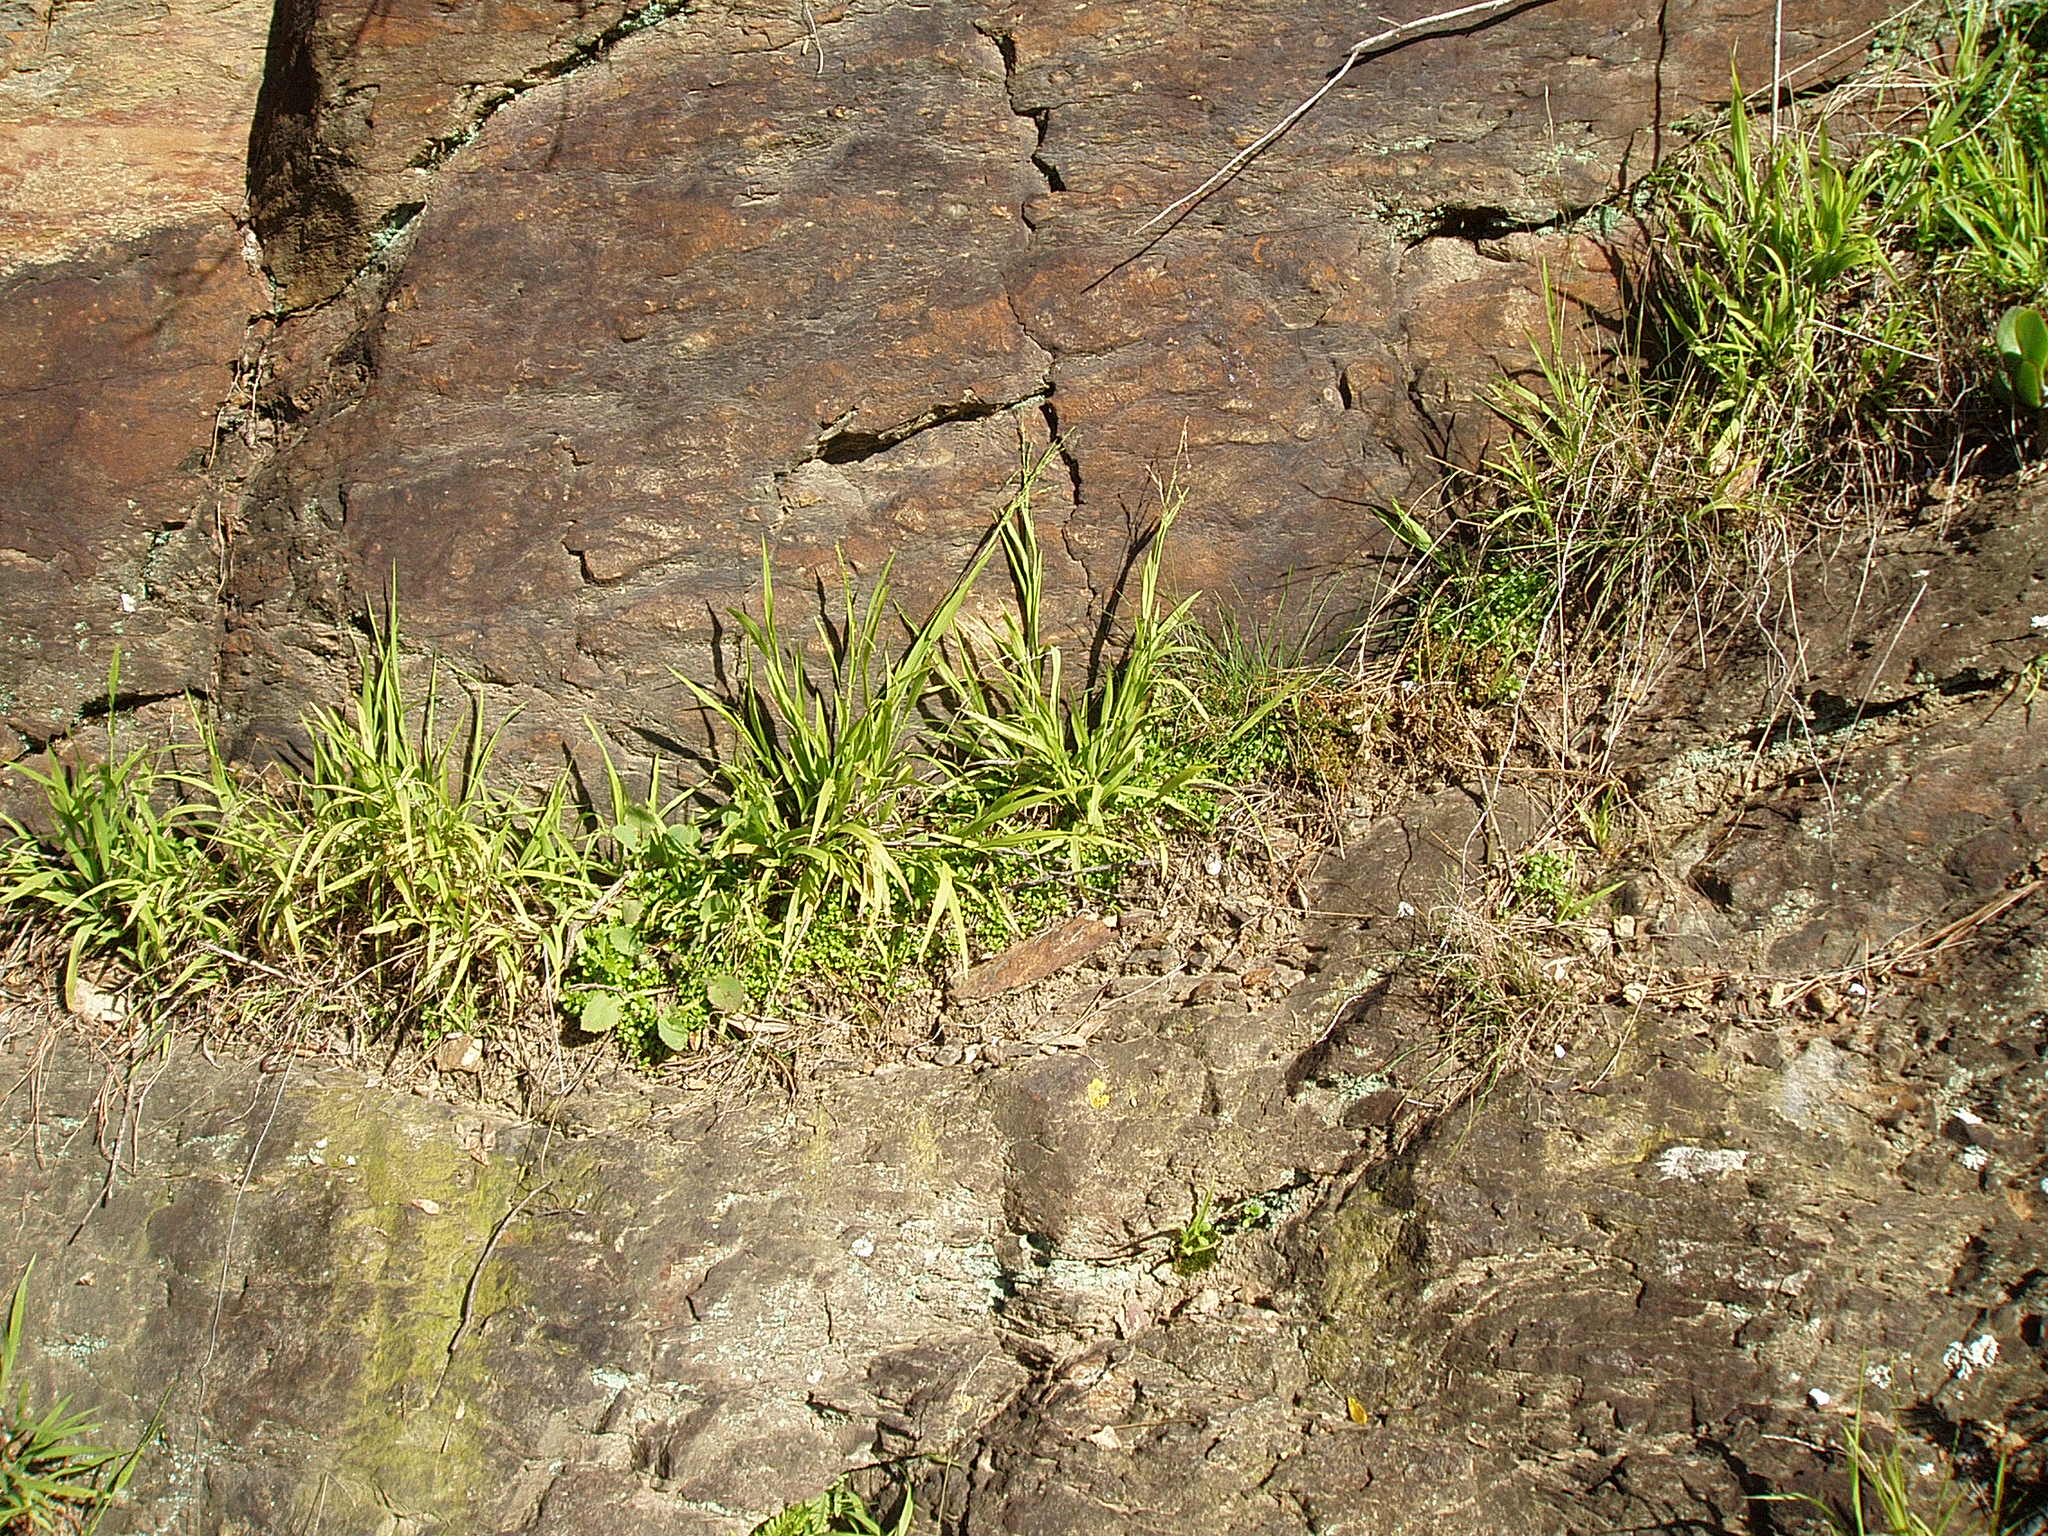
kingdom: Plantae
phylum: Tracheophyta
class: Liliopsida
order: Poales
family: Poaceae
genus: Ehrharta
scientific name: Ehrharta erecta
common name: Panic veldtgrass
